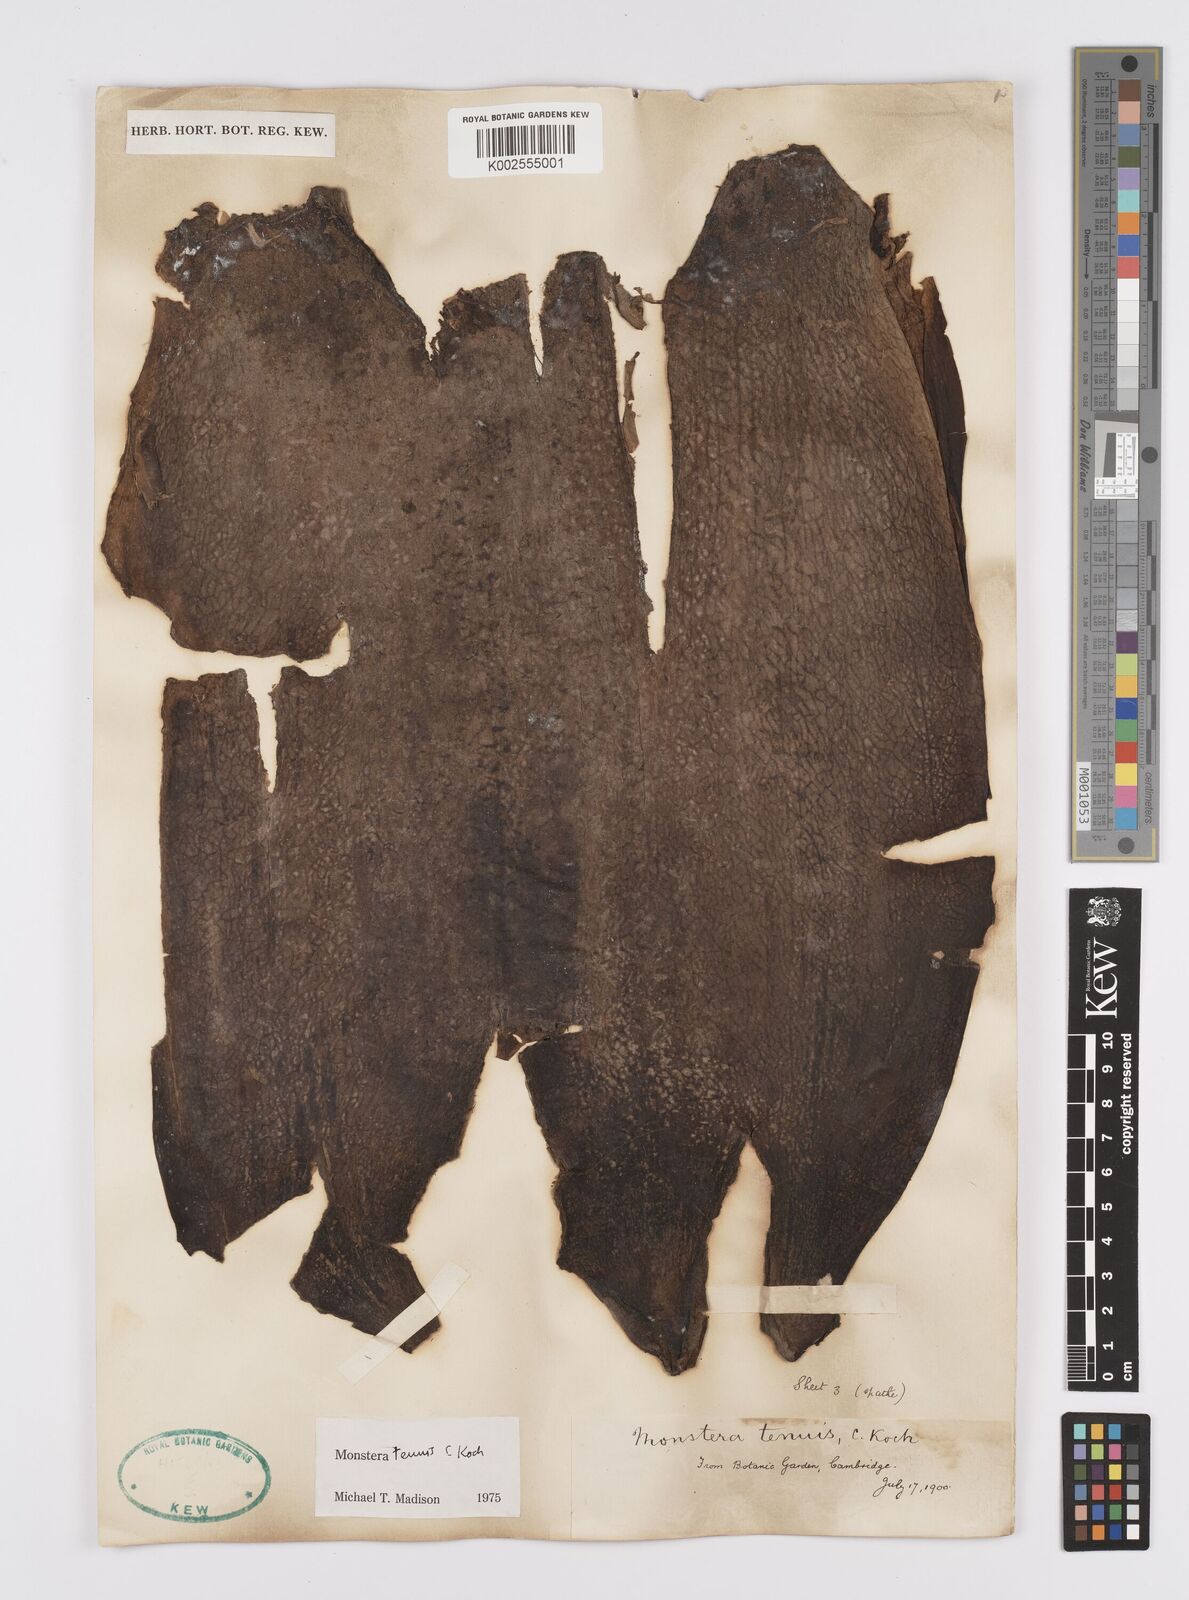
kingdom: Plantae
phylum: Tracheophyta
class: Liliopsida
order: Alismatales
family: Araceae
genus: Monstera
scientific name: Monstera tenuis
